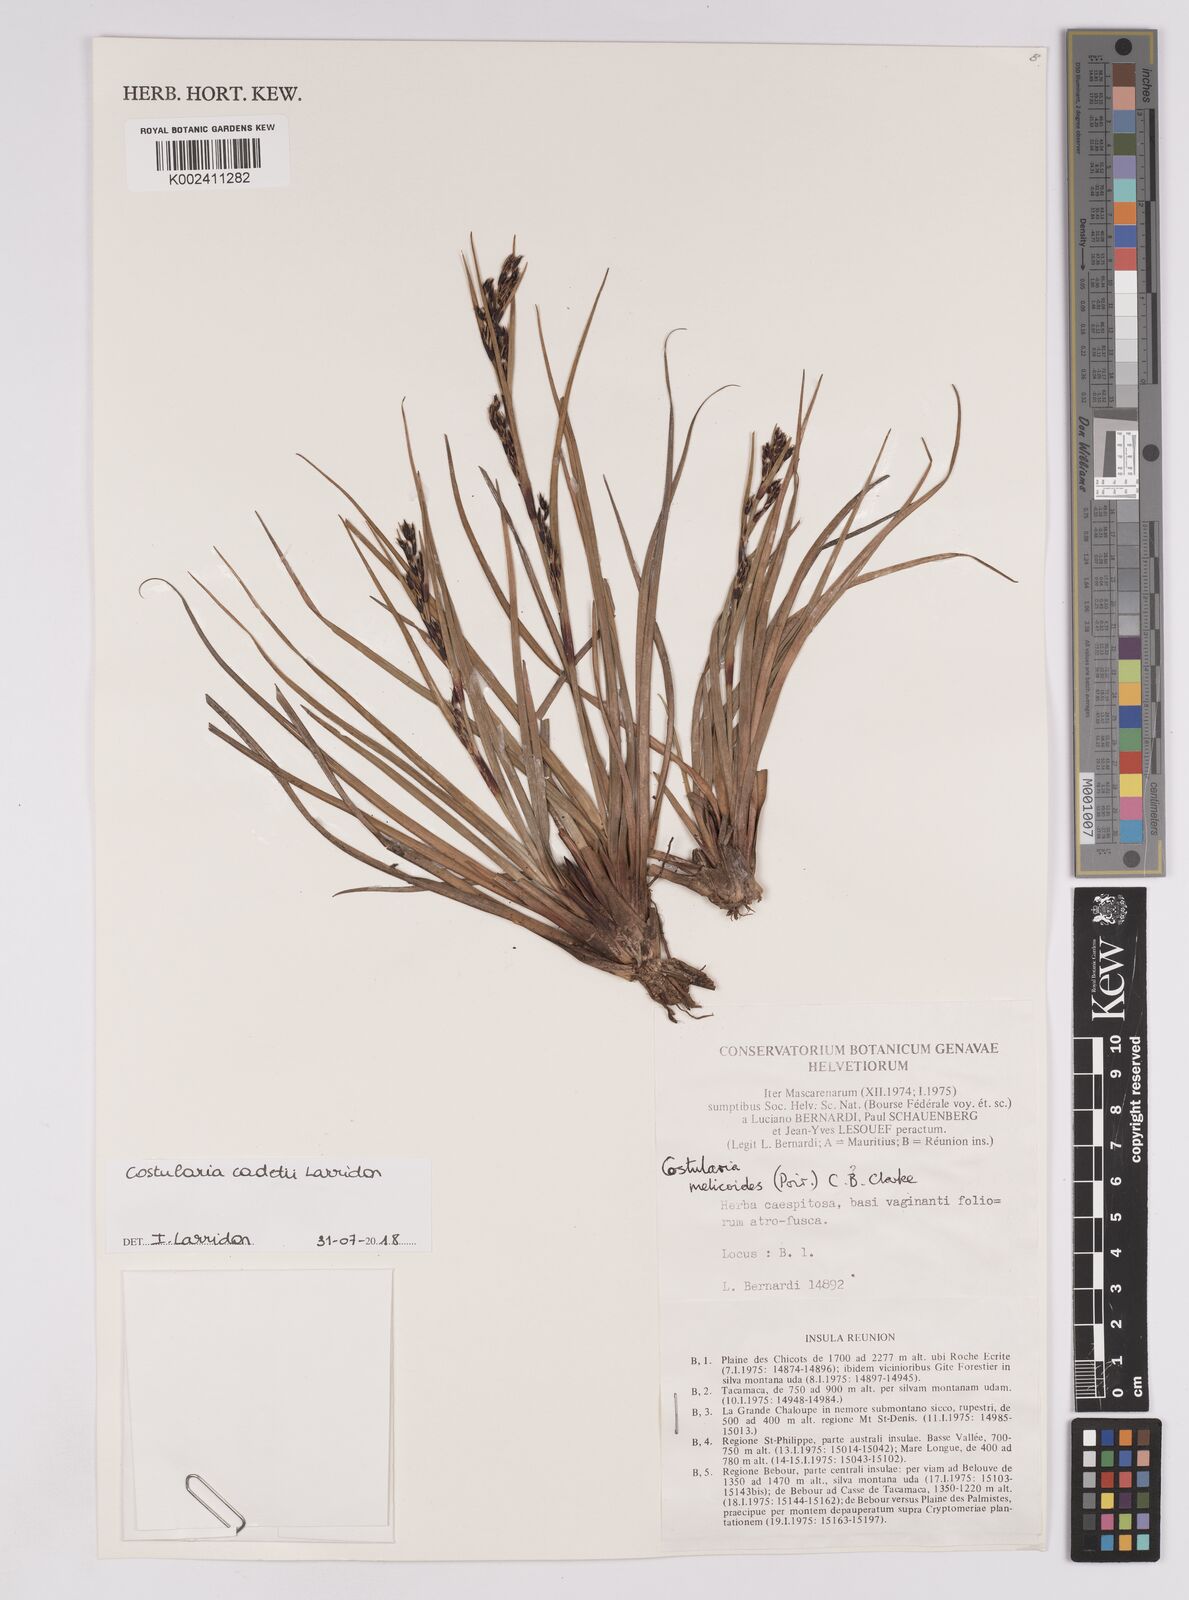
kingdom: Plantae
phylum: Tracheophyta
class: Liliopsida
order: Poales
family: Cyperaceae
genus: Costularia
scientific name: Costularia cadetii
